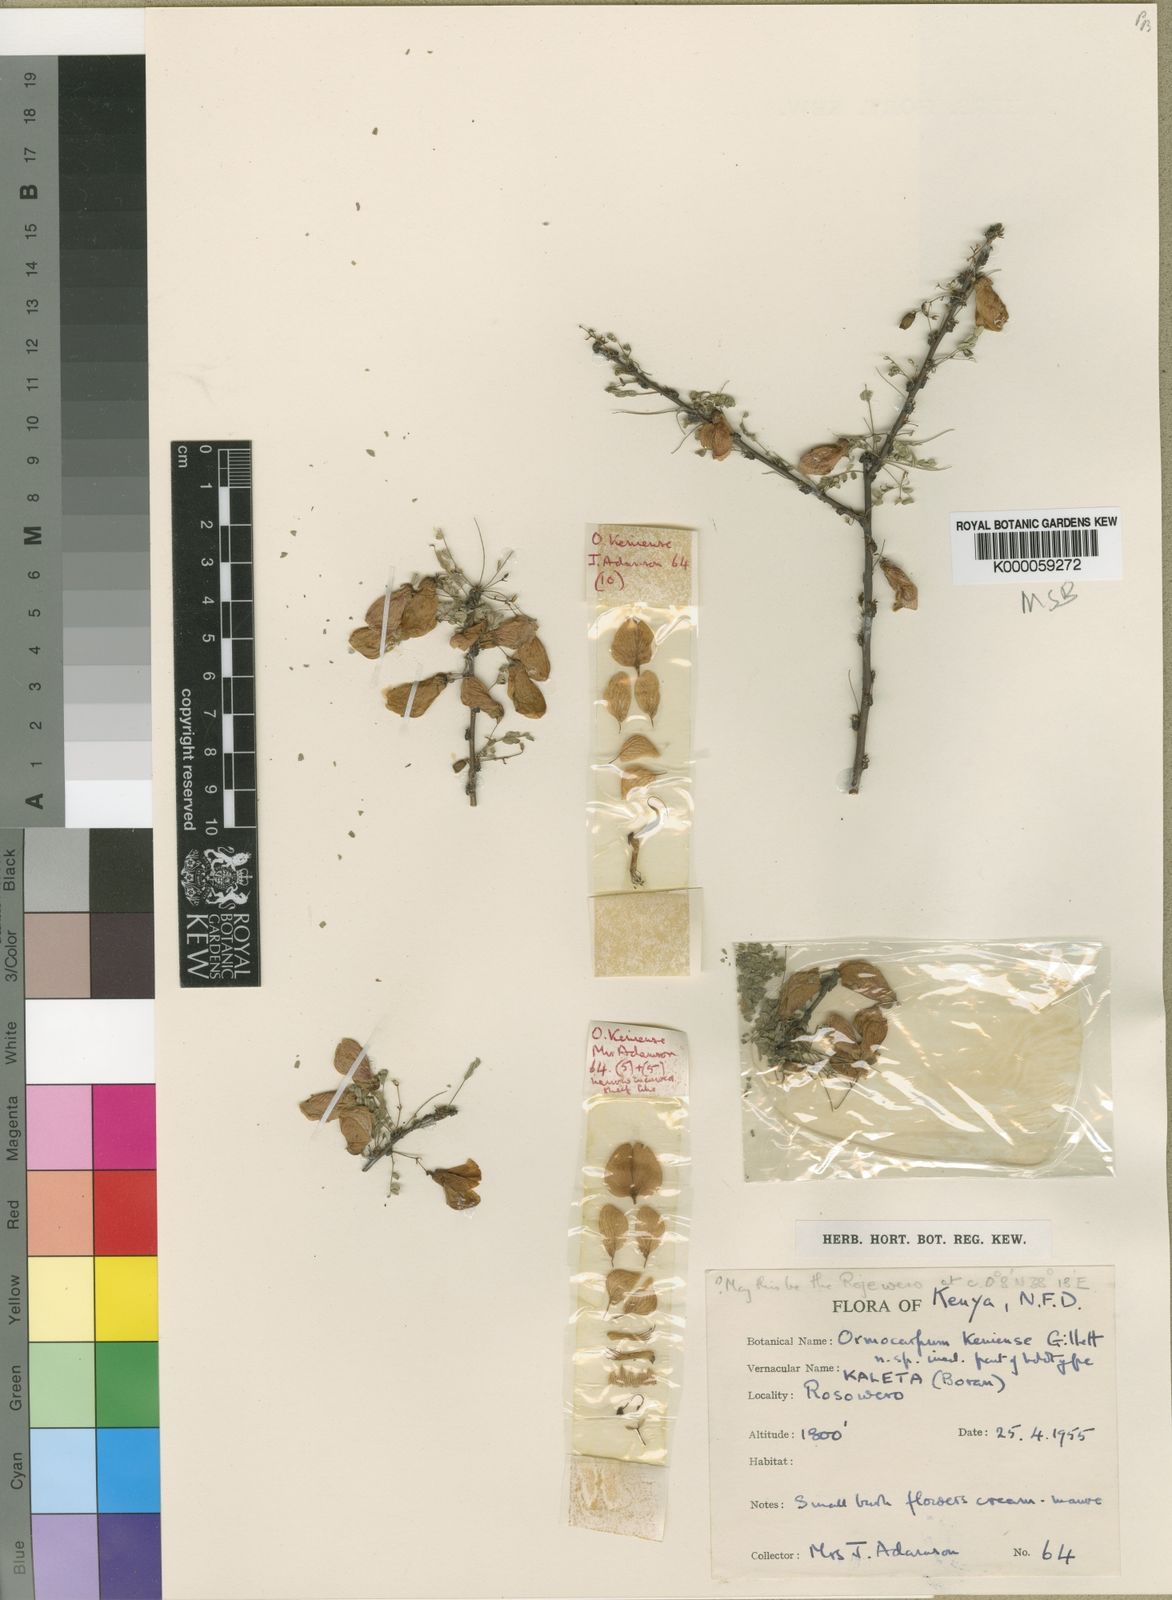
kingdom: Plantae
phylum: Tracheophyta
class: Magnoliopsida
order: Fabales
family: Fabaceae
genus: Ormocarpum
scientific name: Ormocarpum keniense
